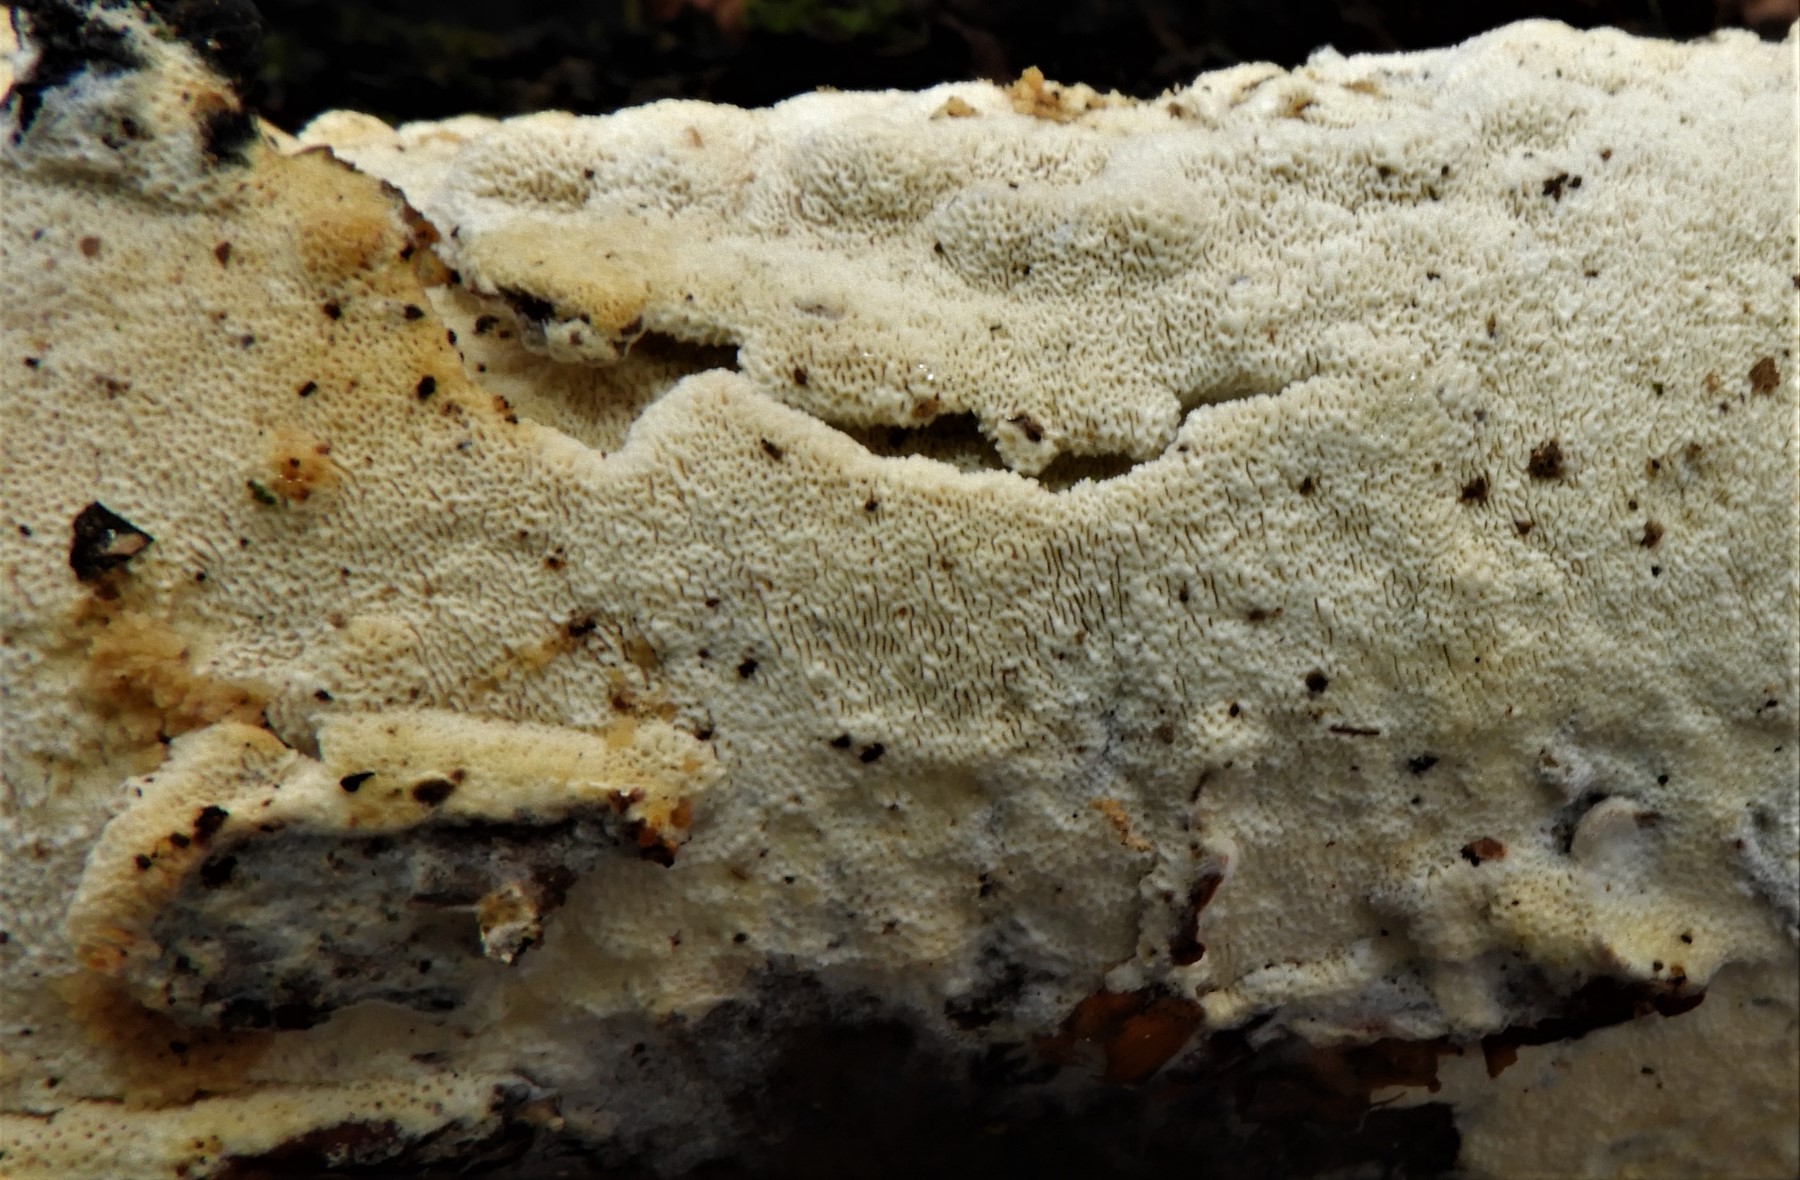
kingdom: Fungi
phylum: Basidiomycota
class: Agaricomycetes
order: Hymenochaetales
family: Schizoporaceae
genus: Xylodon
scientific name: Xylodon subtropicus
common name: labyrint-tandsvamp
